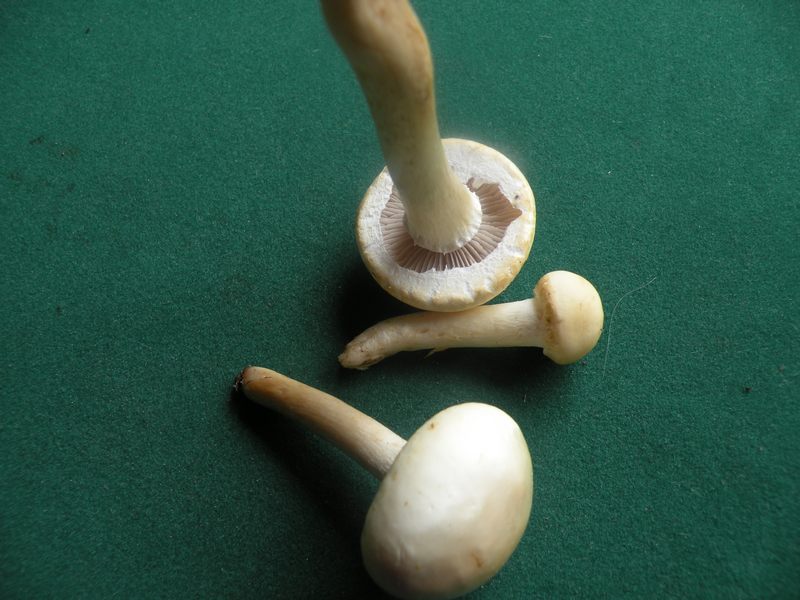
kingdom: Fungi
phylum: Basidiomycota
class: Agaricomycetes
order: Agaricales
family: Strophariaceae
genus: Agrocybe
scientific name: Agrocybe dura
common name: fastkødet agerhat
